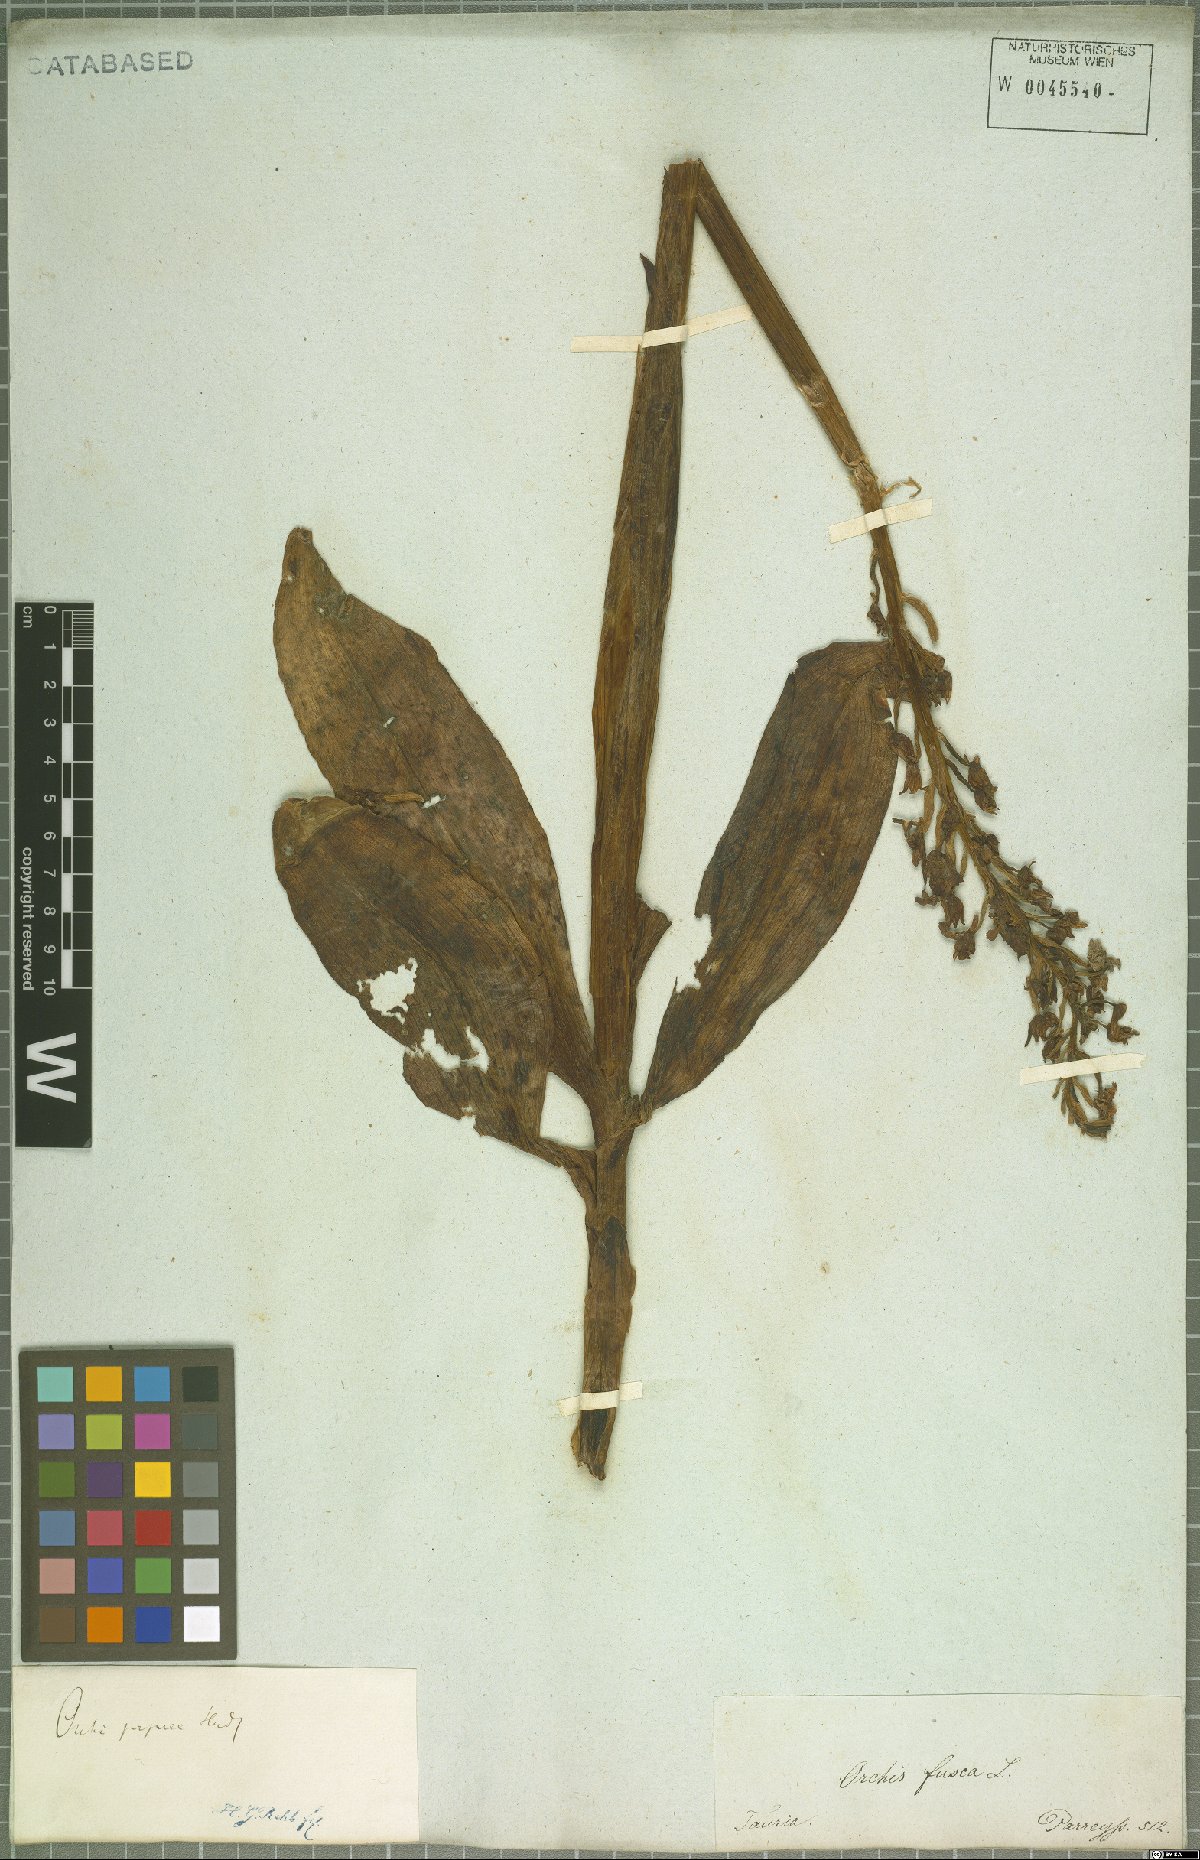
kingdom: Plantae
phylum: Tracheophyta
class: Liliopsida
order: Asparagales
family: Orchidaceae
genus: Orchis
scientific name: Orchis purpurea
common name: Lady orchid
